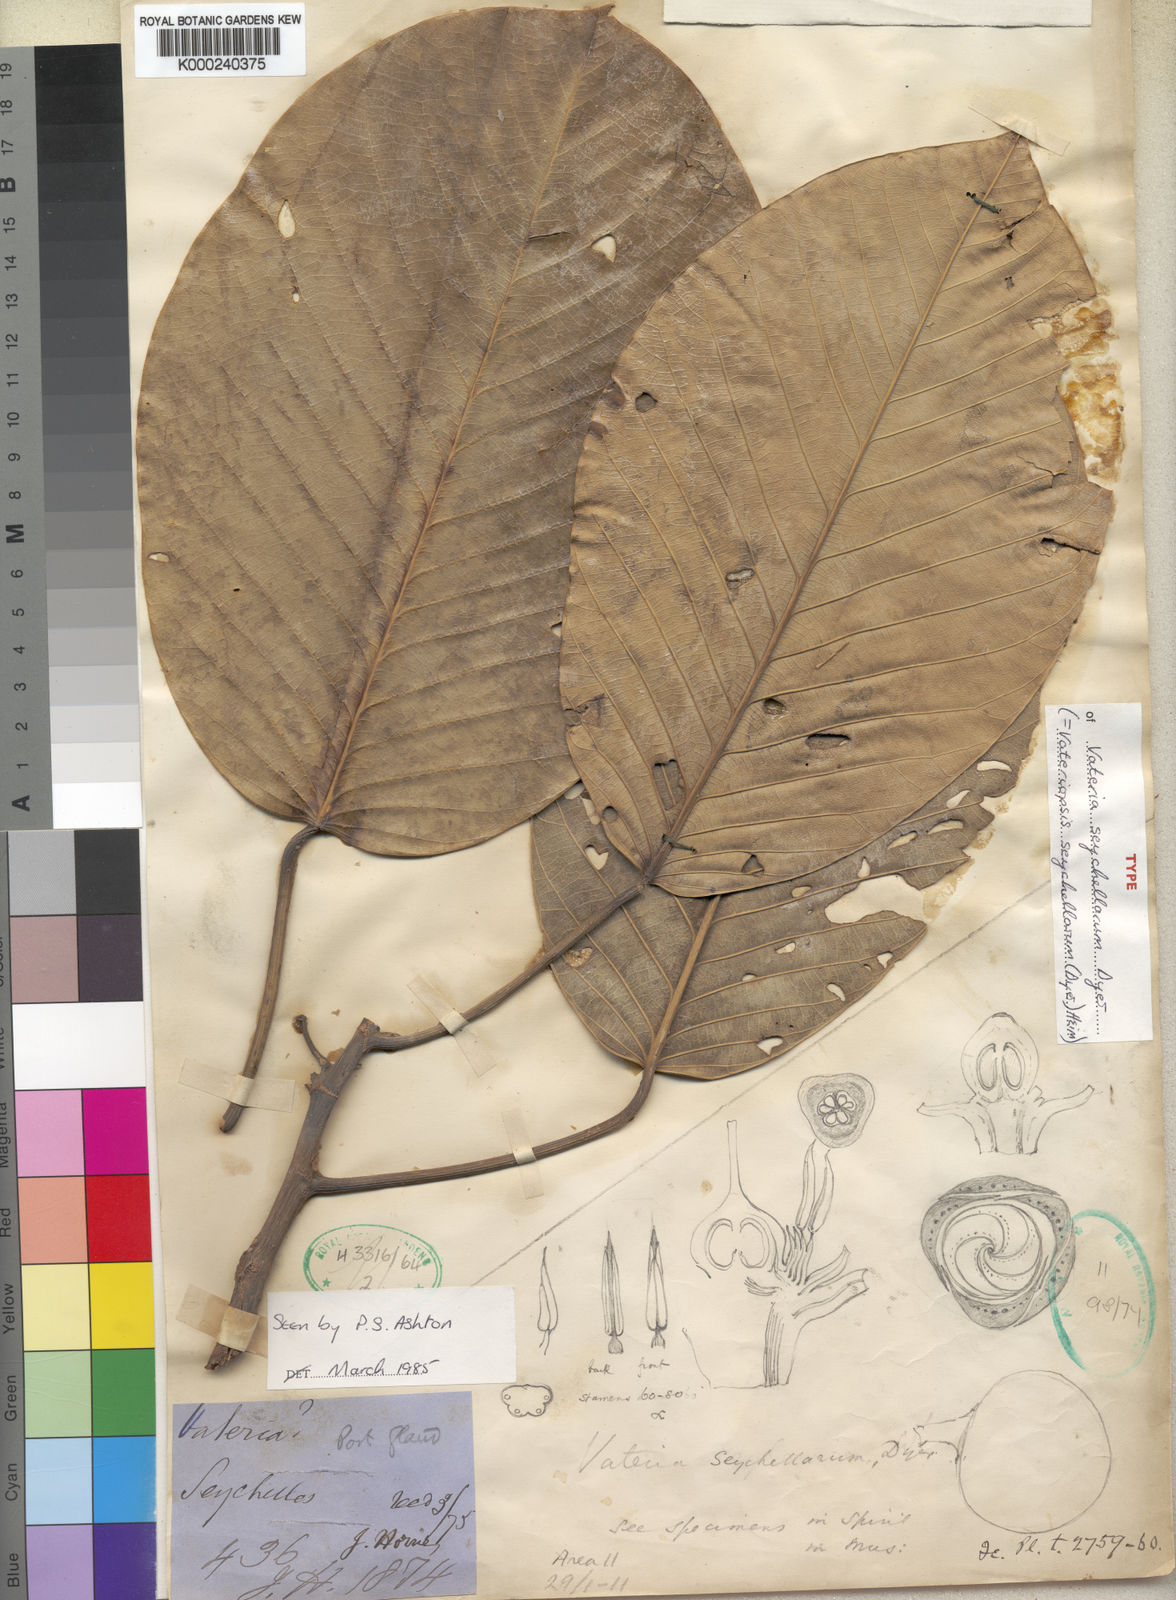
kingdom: Plantae
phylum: Tracheophyta
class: Magnoliopsida
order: Malvales
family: Dipterocarpaceae
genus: Vateriopsis
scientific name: Vateriopsis seychellarum
